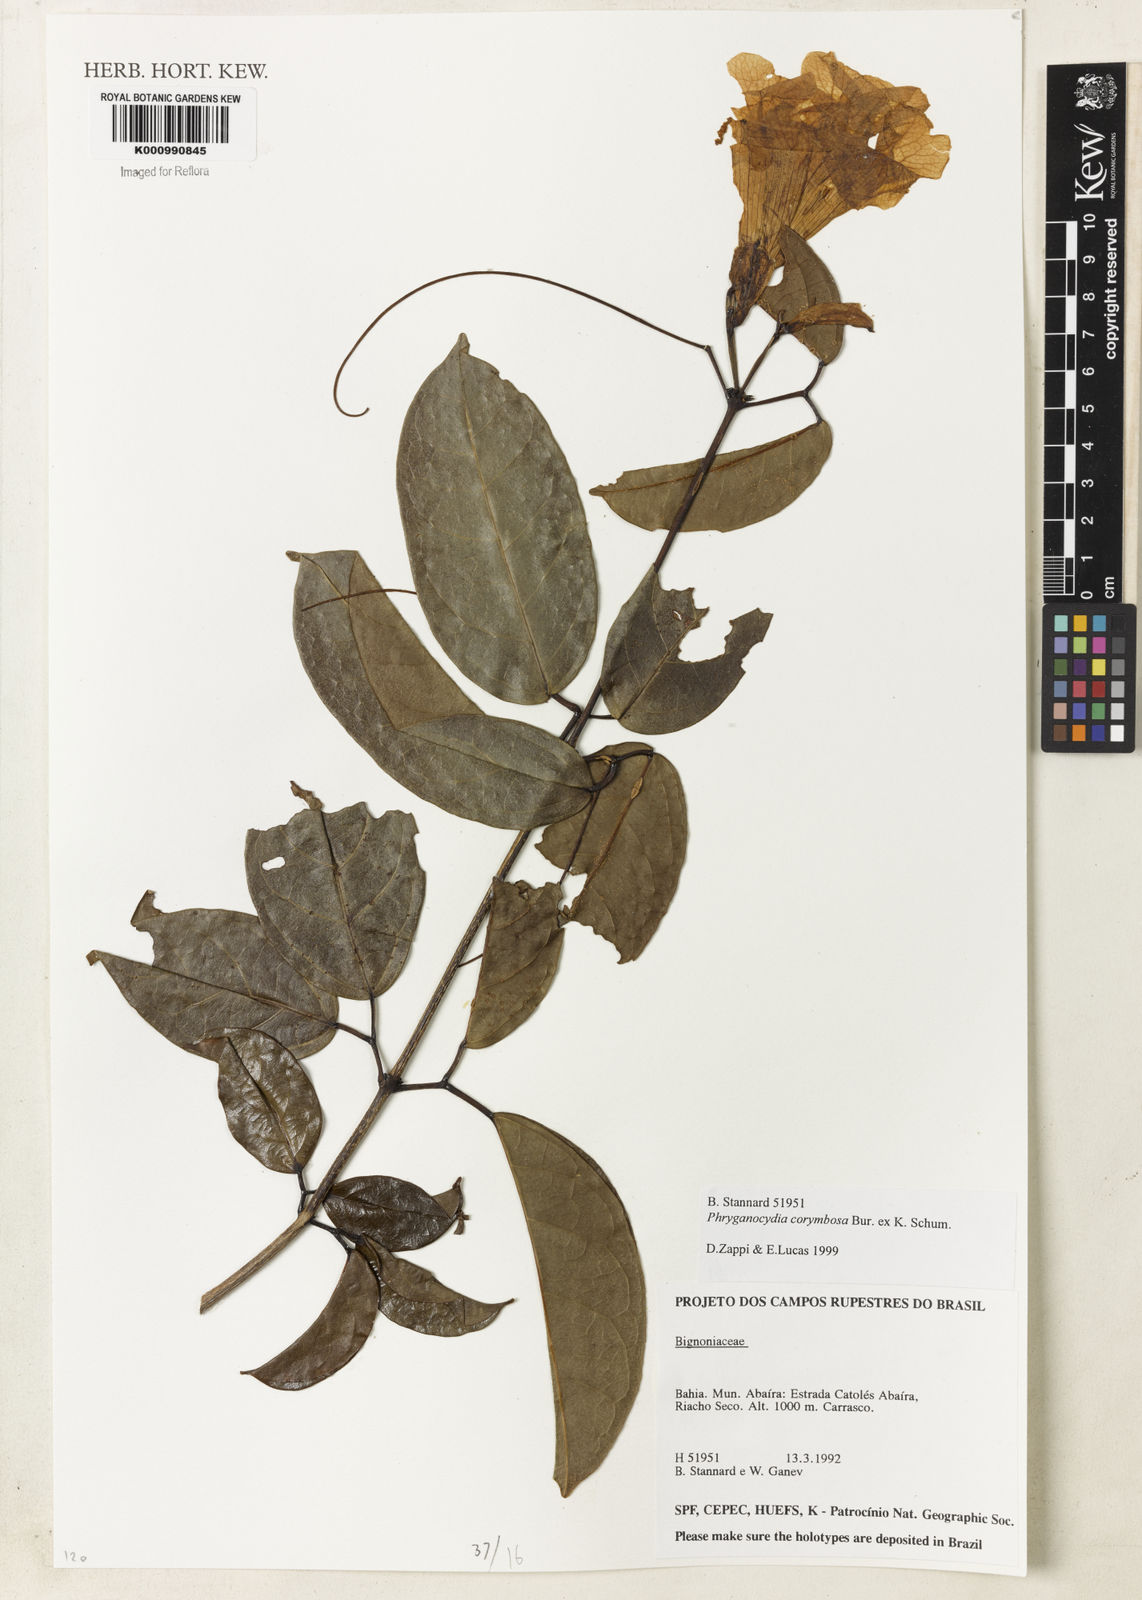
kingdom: Plantae
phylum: Tracheophyta
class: Magnoliopsida
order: Lamiales
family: Bignoniaceae
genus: Bignonia
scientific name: Bignonia corymbosa
